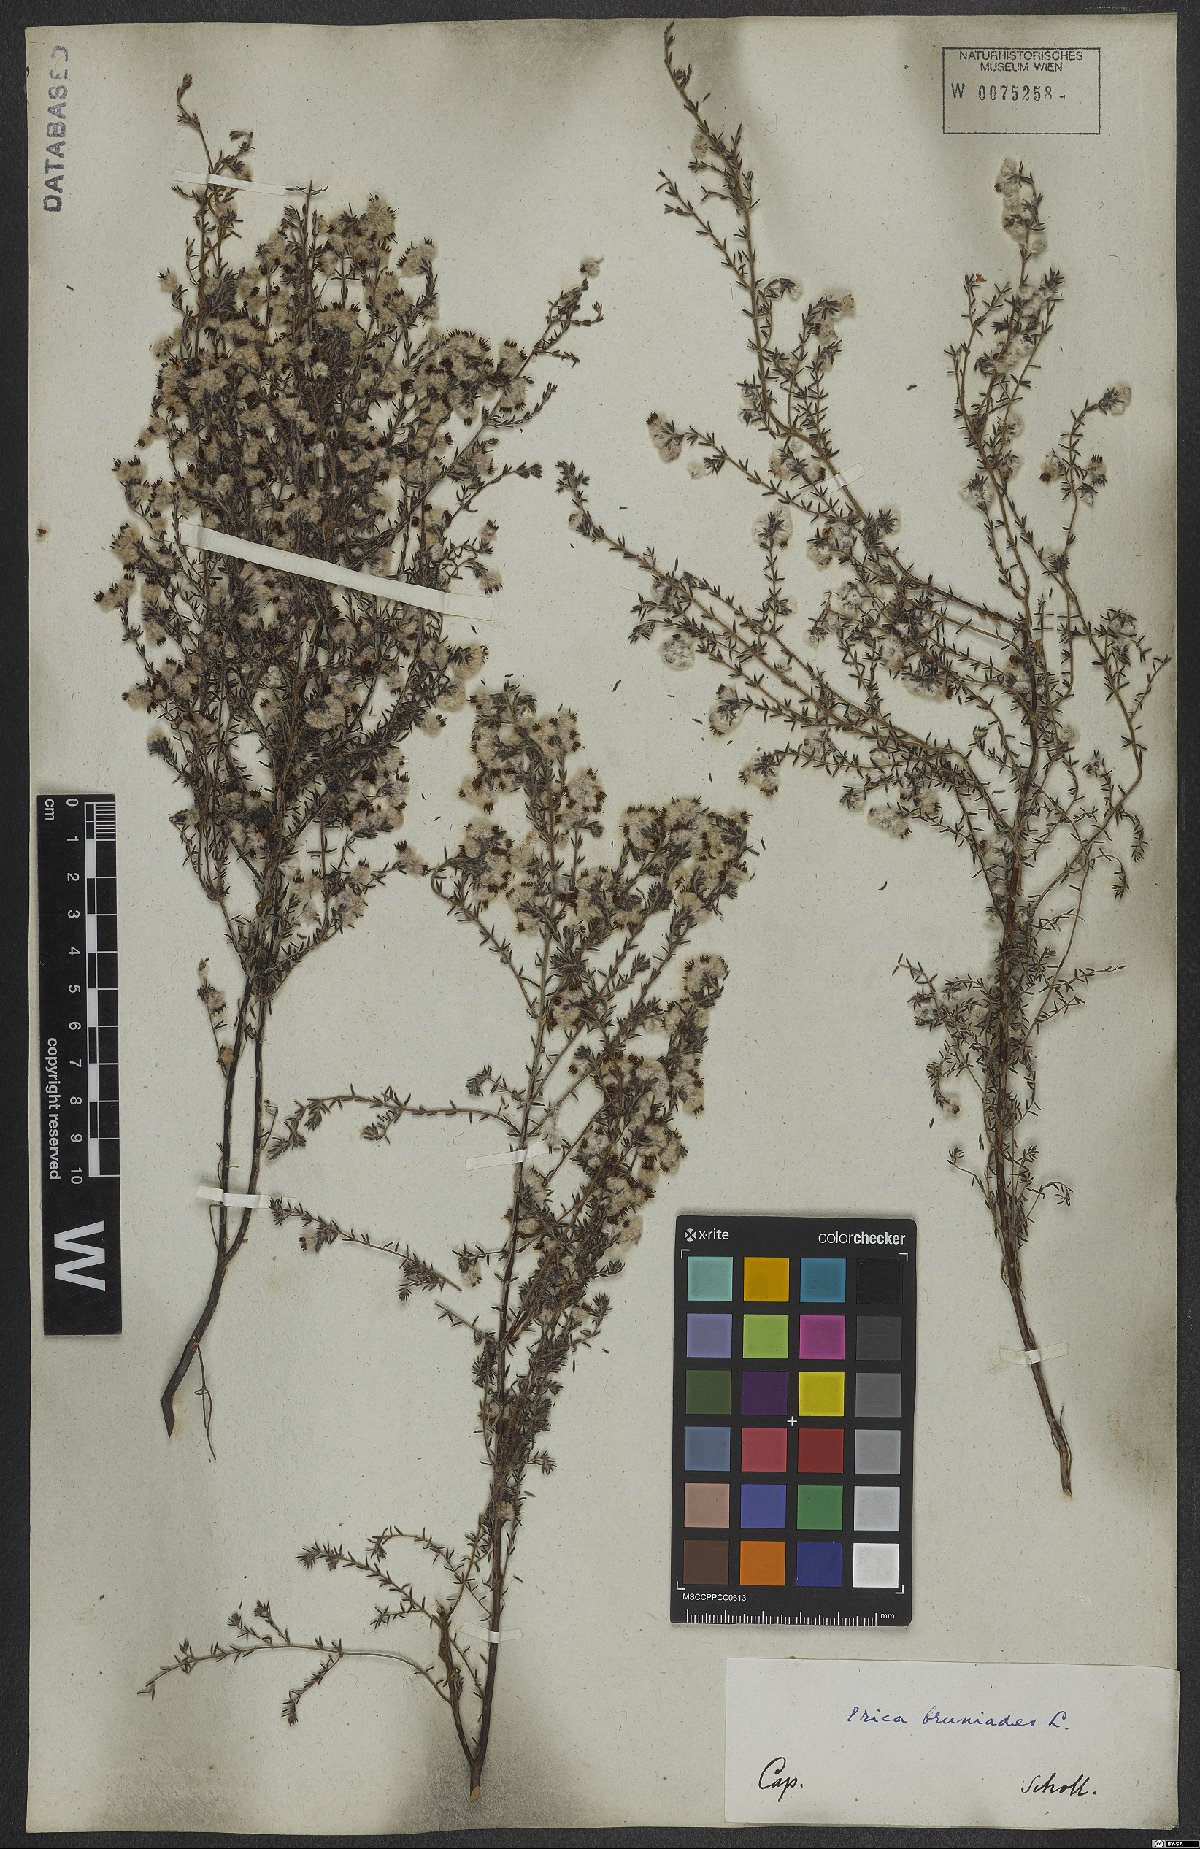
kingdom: Plantae
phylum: Tracheophyta
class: Magnoliopsida
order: Ericales
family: Ericaceae
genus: Erica
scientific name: Erica bruniades
